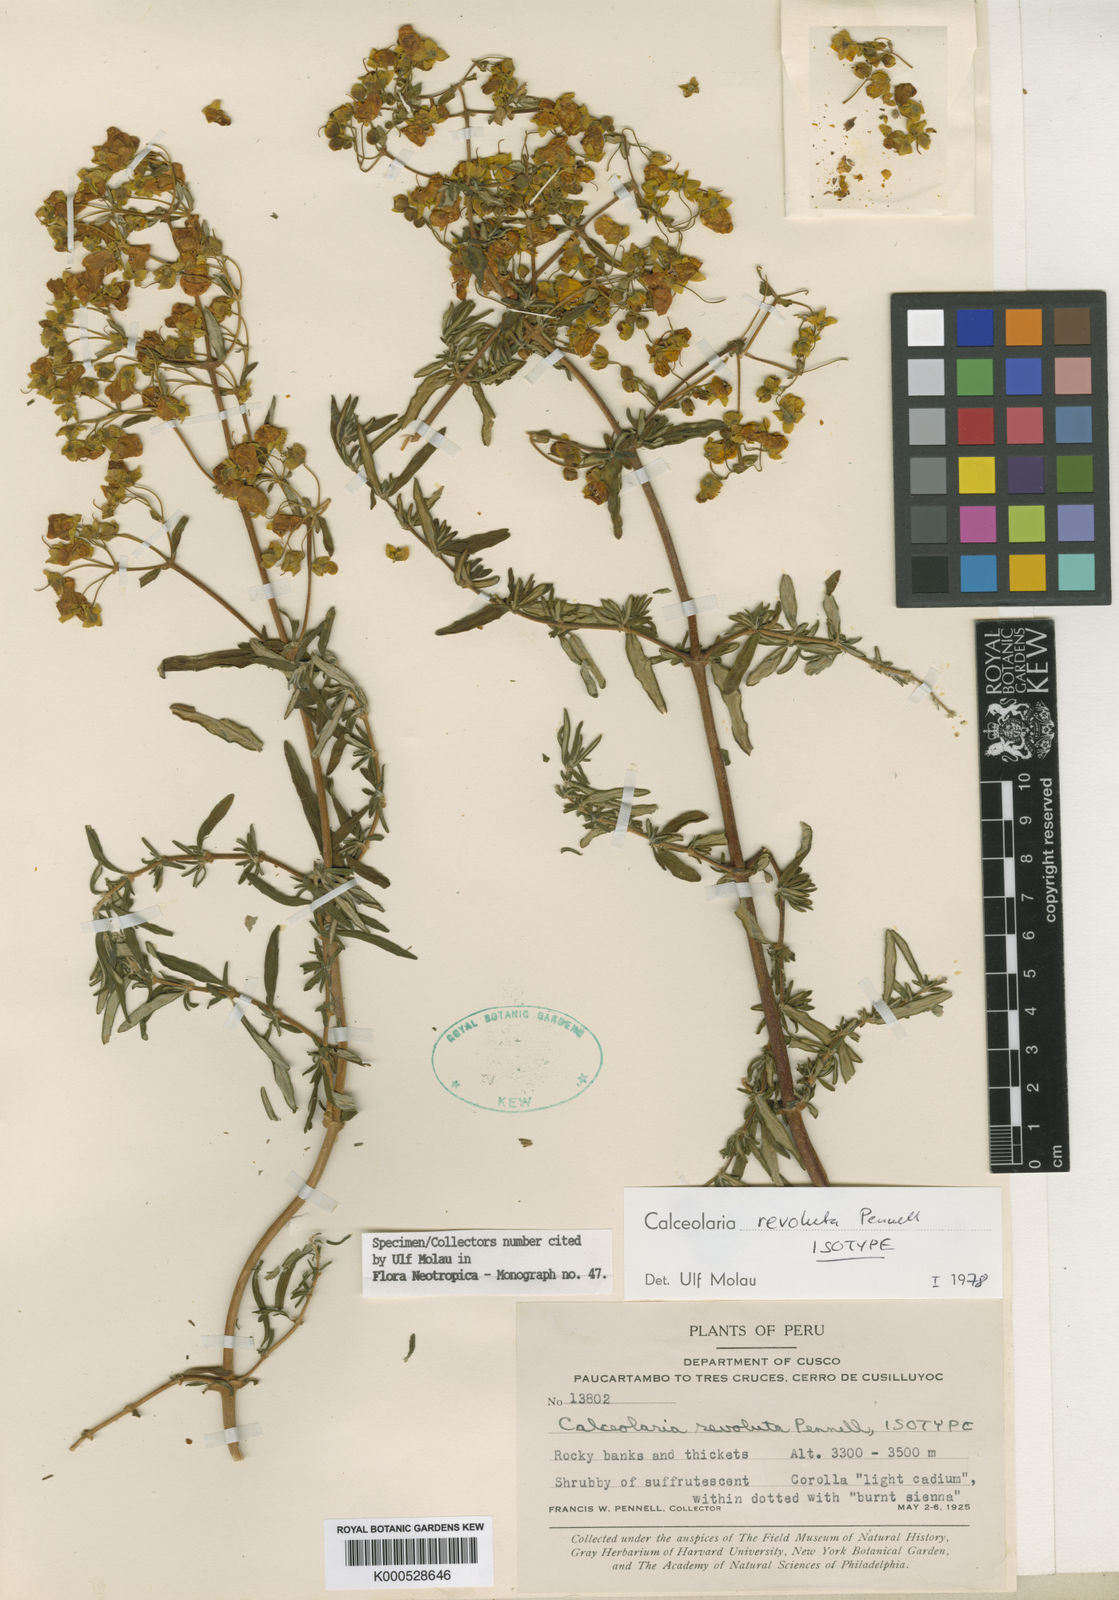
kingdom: Plantae
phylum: Tracheophyta
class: Magnoliopsida
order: Lamiales
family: Calceolariaceae
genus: Calceolaria
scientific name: Calceolaria revoluta
